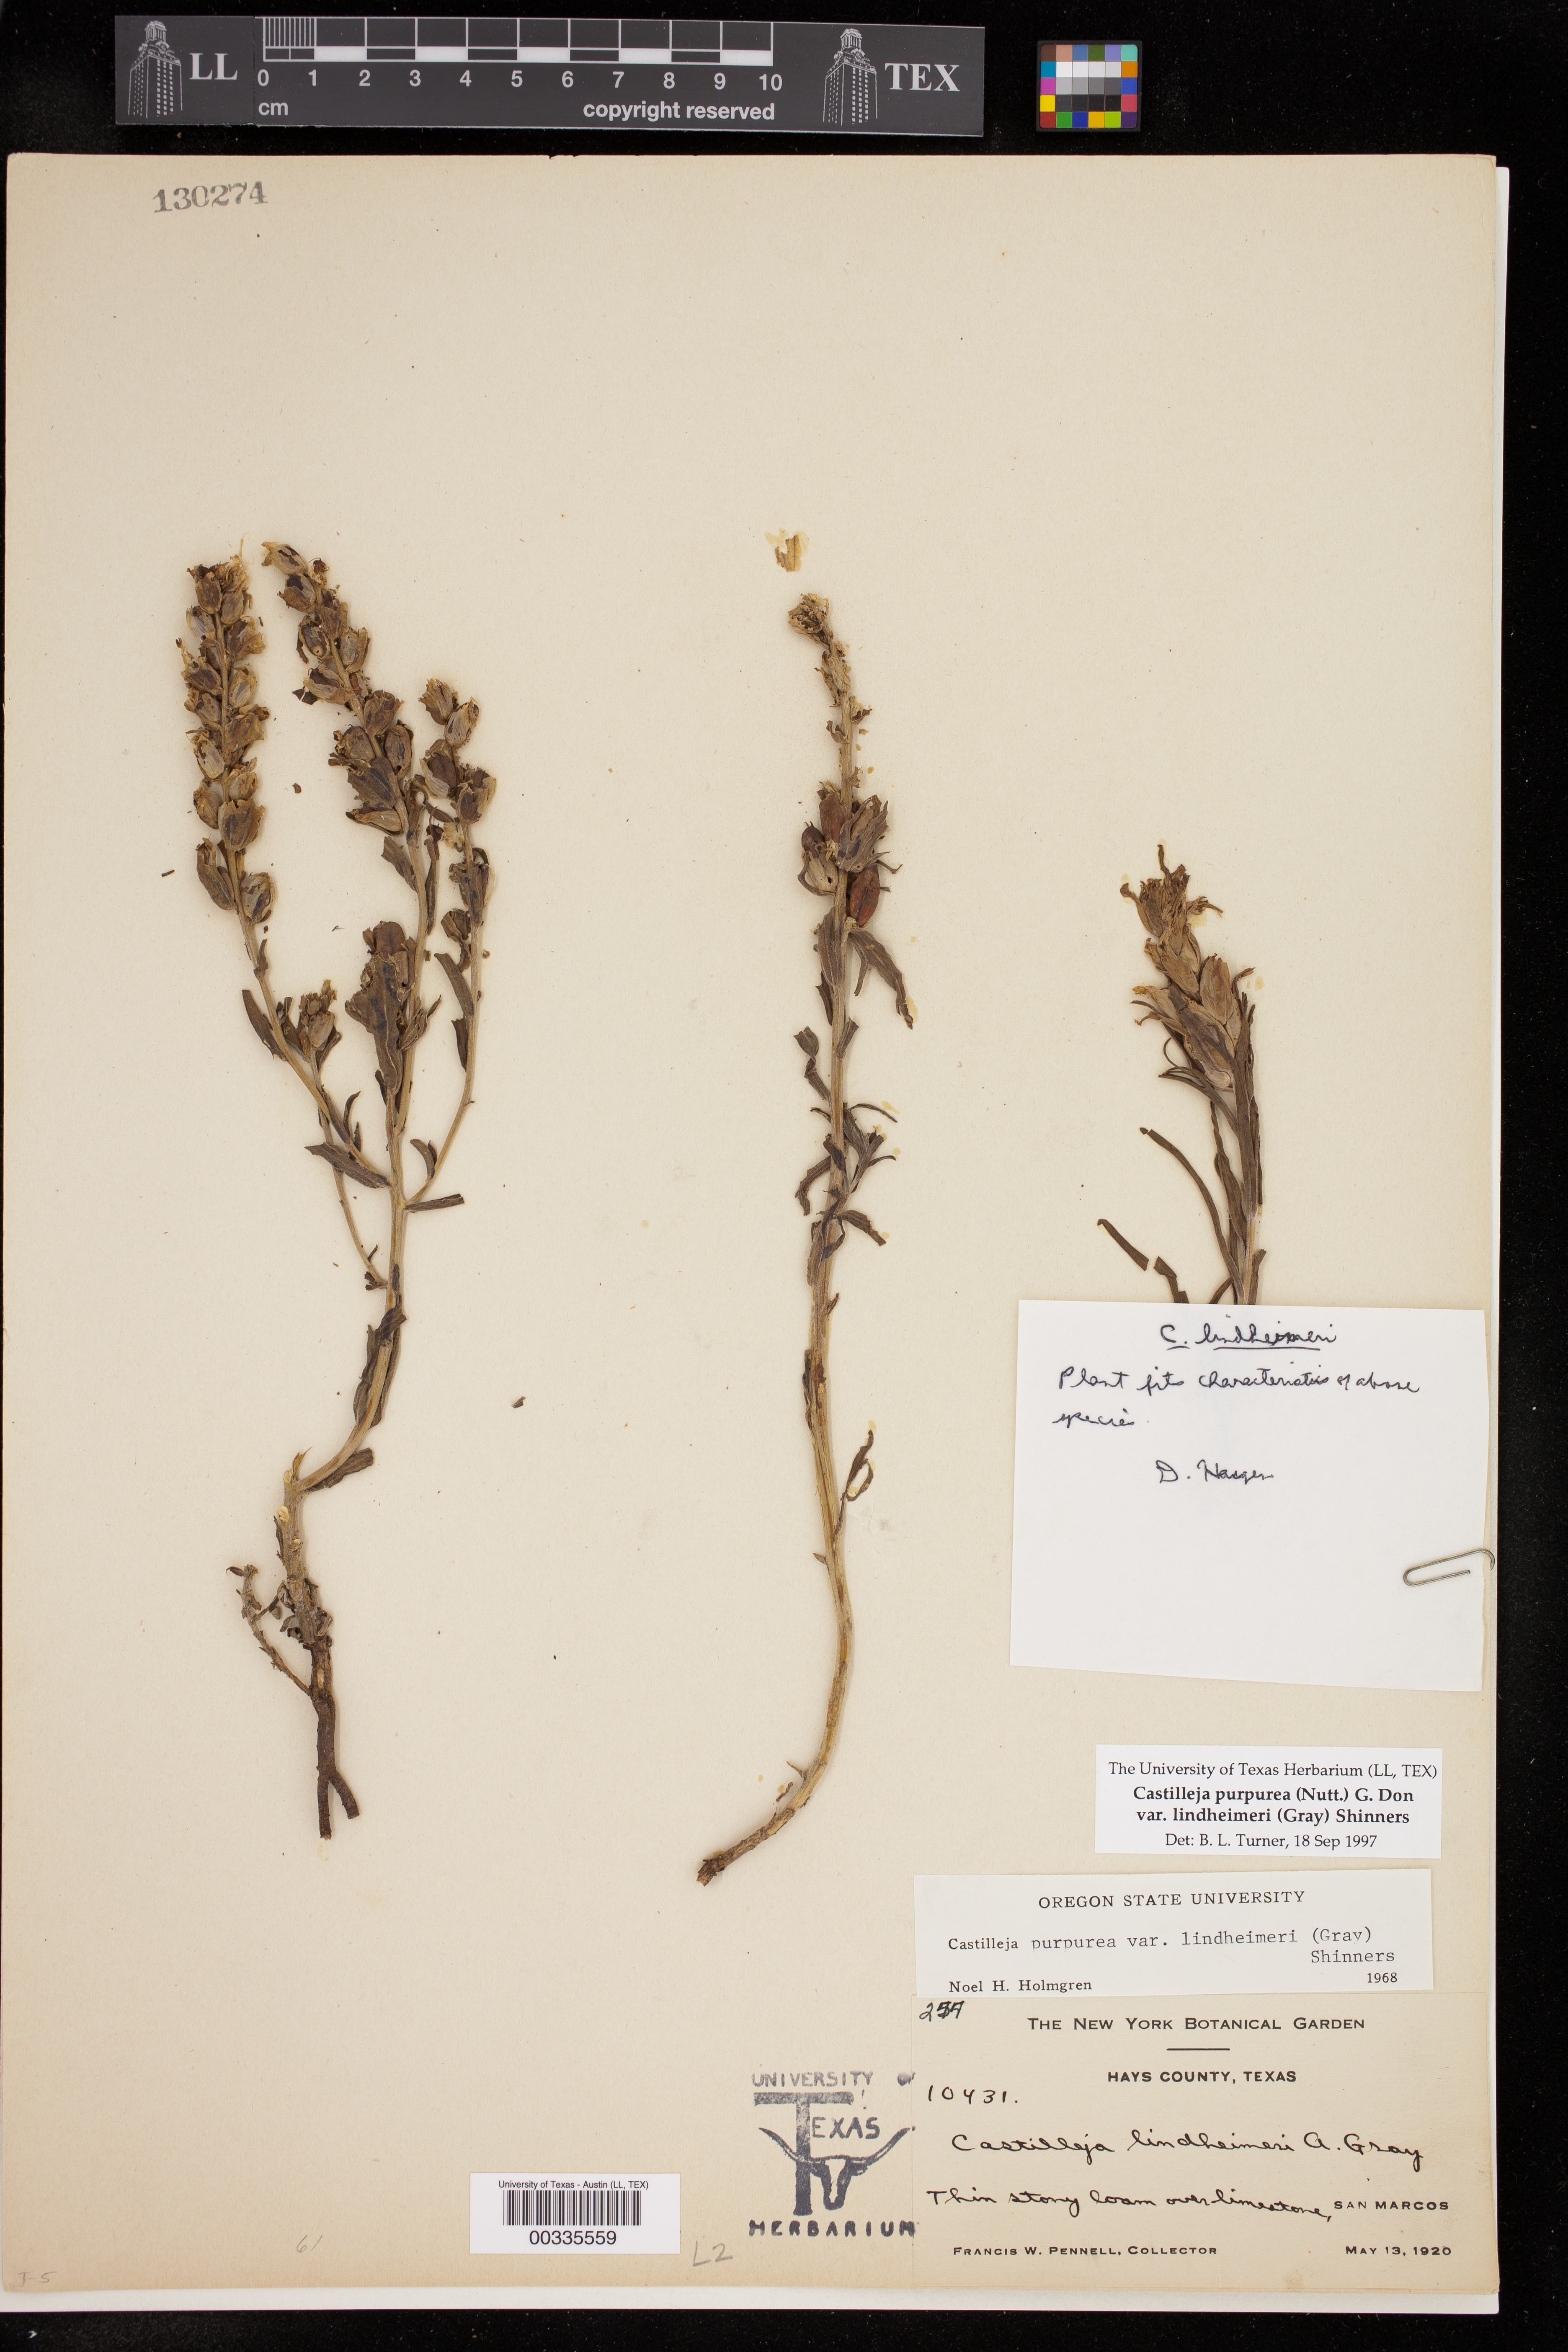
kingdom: Plantae
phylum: Tracheophyta
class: Magnoliopsida
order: Lamiales
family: Orobanchaceae
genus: Castilleja
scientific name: Castilleja lindheimeri
